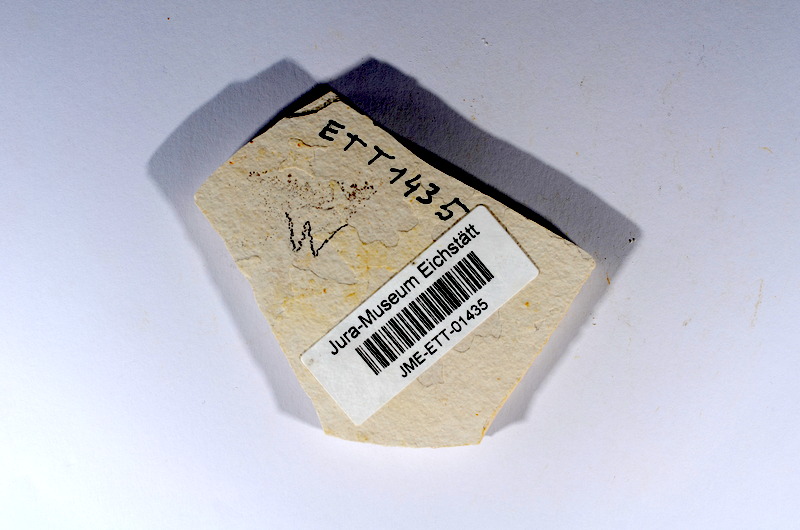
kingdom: Animalia
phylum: Chordata
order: Salmoniformes
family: Orthogonikleithridae
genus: Orthogonikleithrus
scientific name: Orthogonikleithrus hoelli
